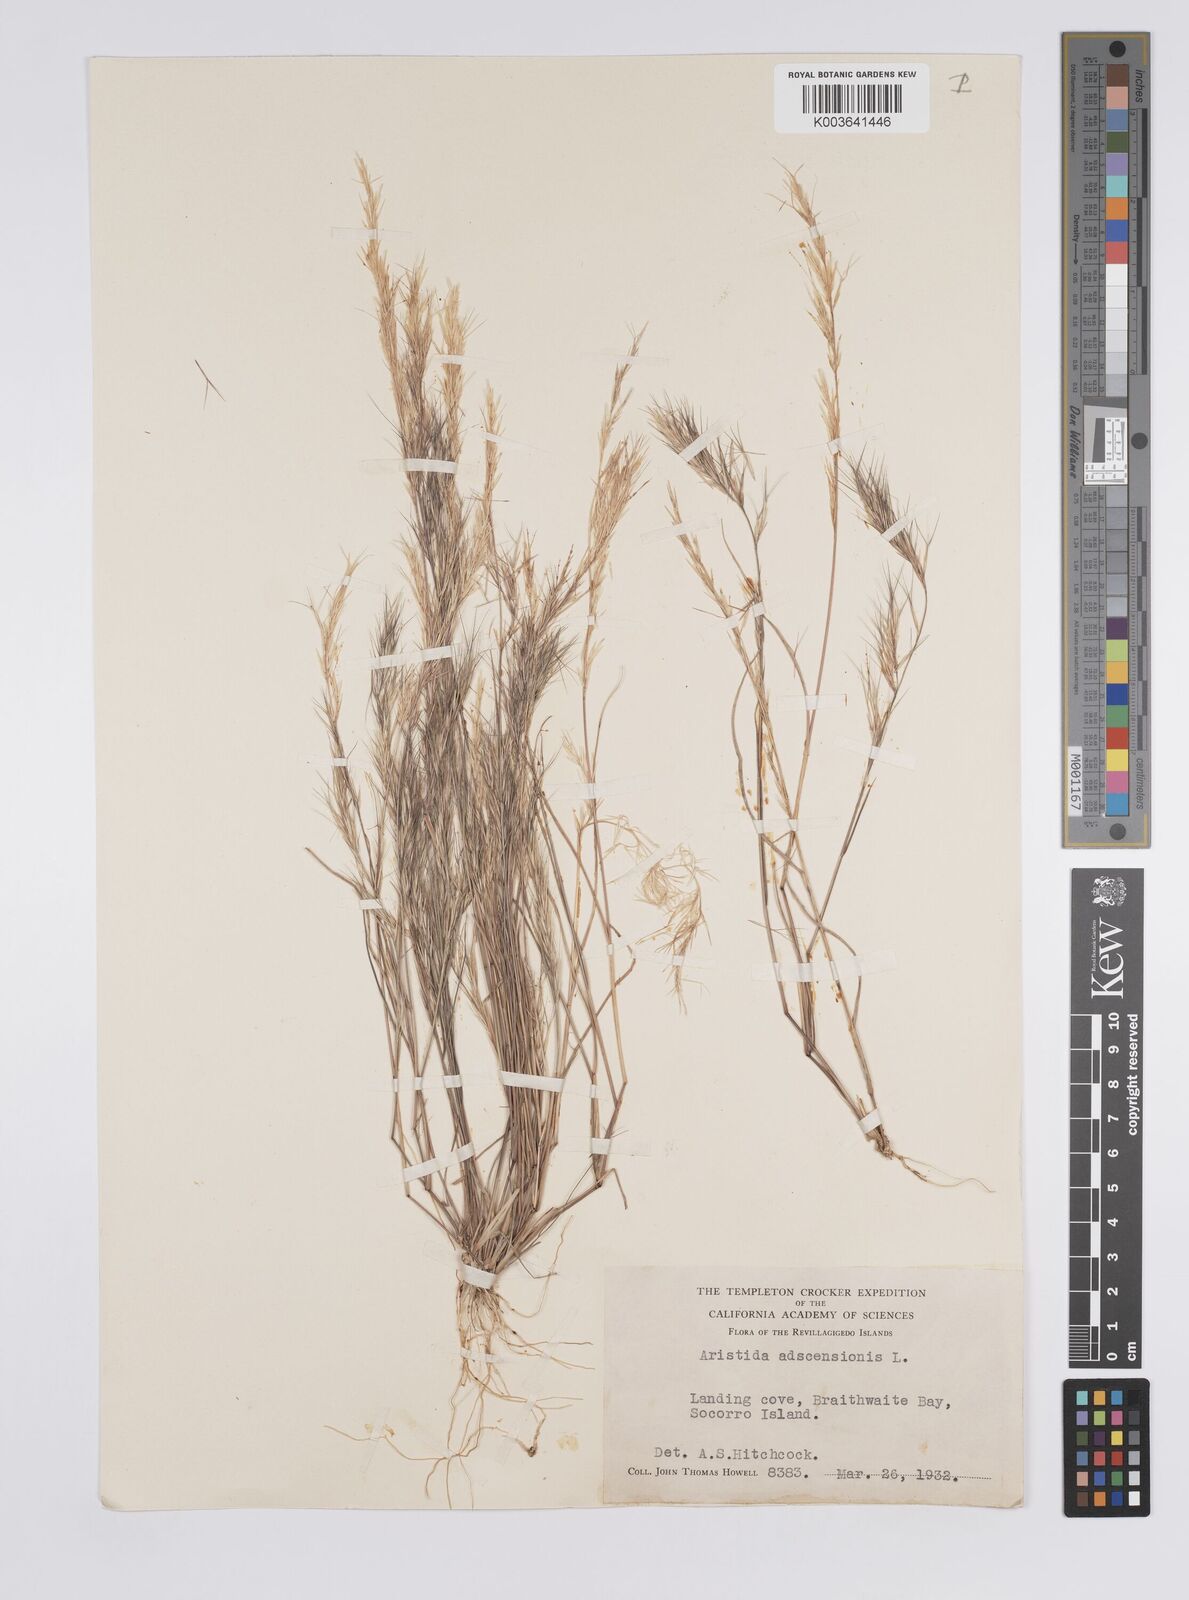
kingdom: Plantae
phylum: Tracheophyta
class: Liliopsida
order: Poales
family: Poaceae
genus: Aristida
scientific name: Aristida adscensionis
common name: Sixweeks threeawn
